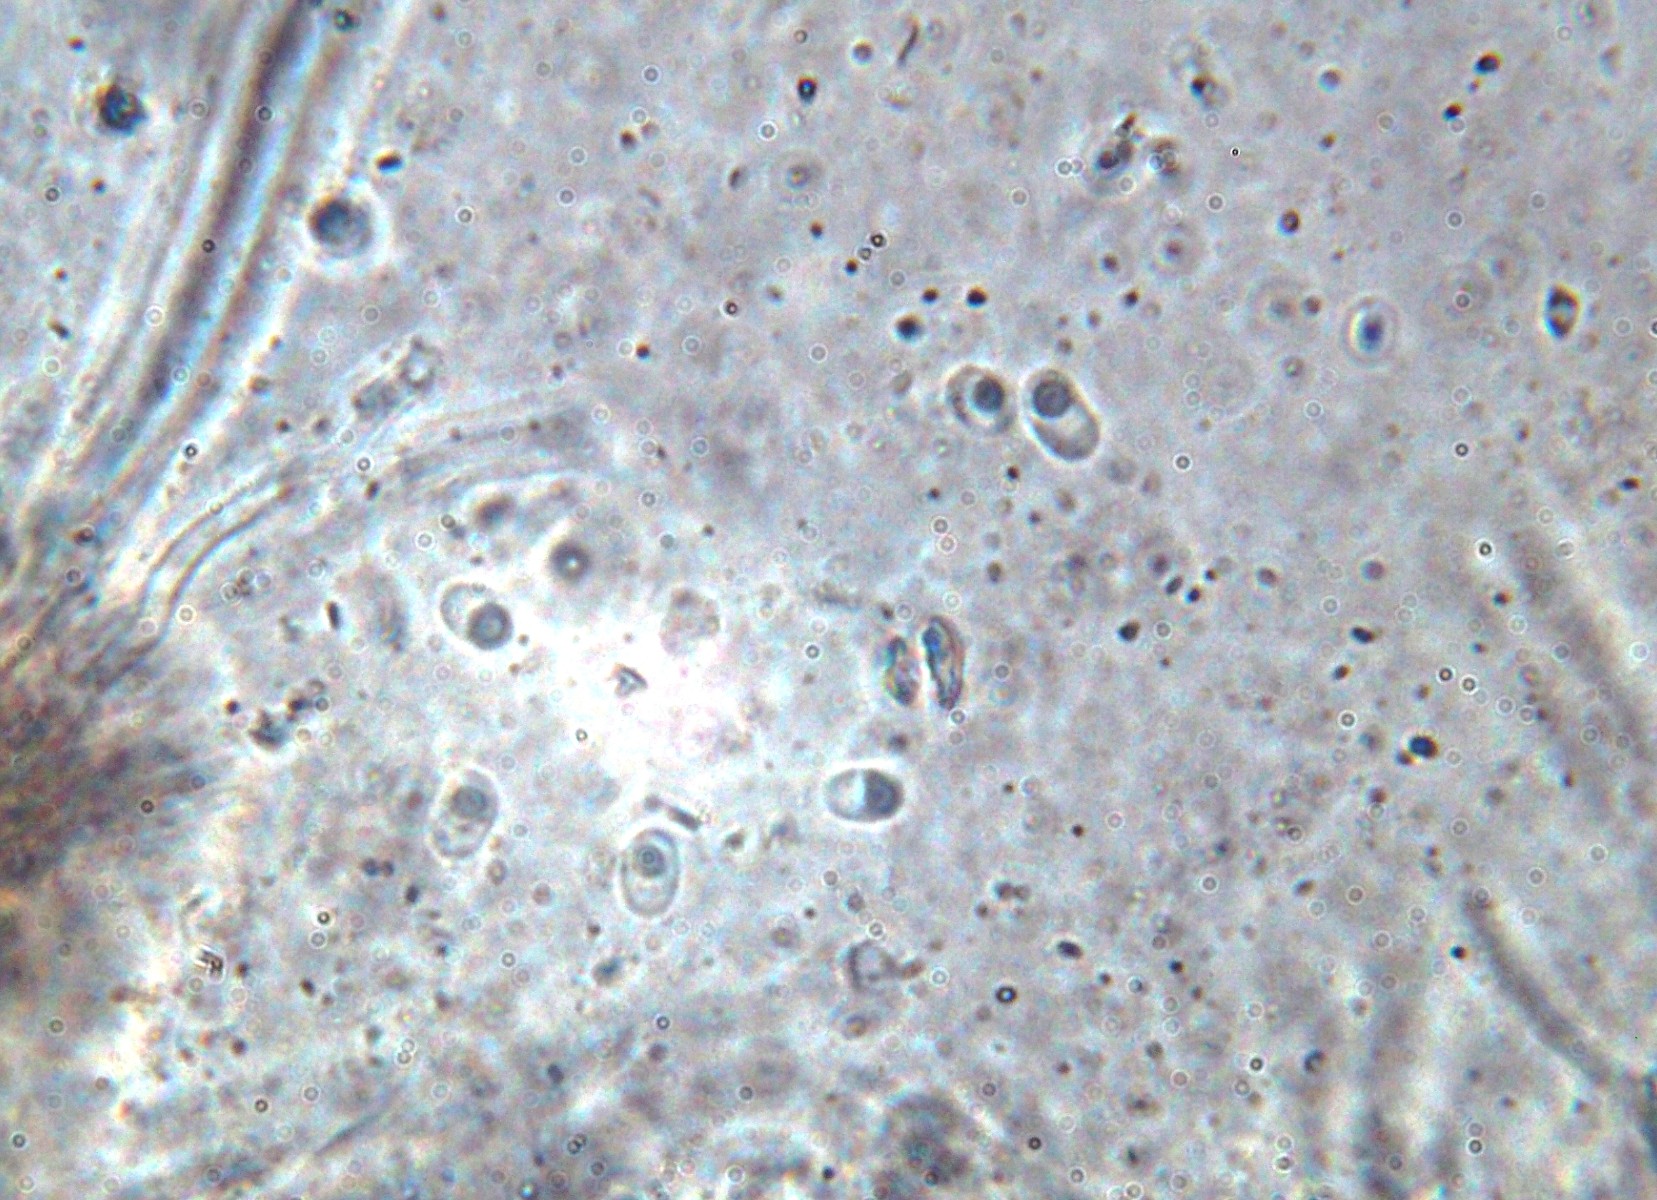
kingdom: Fungi
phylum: Basidiomycota
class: Agaricomycetes
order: Polyporales
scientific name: Polyporales
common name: poresvampordenen
